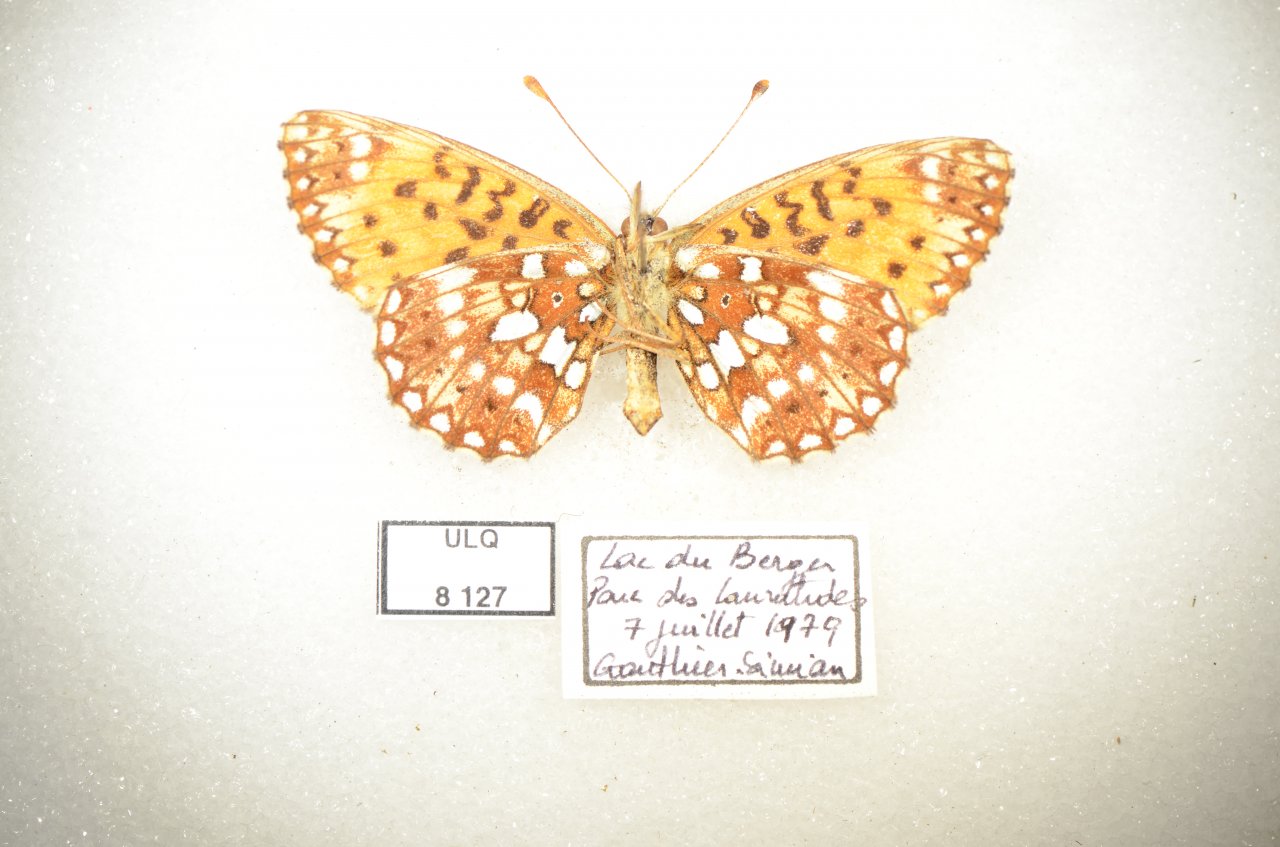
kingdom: Animalia
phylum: Arthropoda
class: Insecta
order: Lepidoptera
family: Nymphalidae
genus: Boloria
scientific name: Boloria selene
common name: Silver-bordered Fritillary
